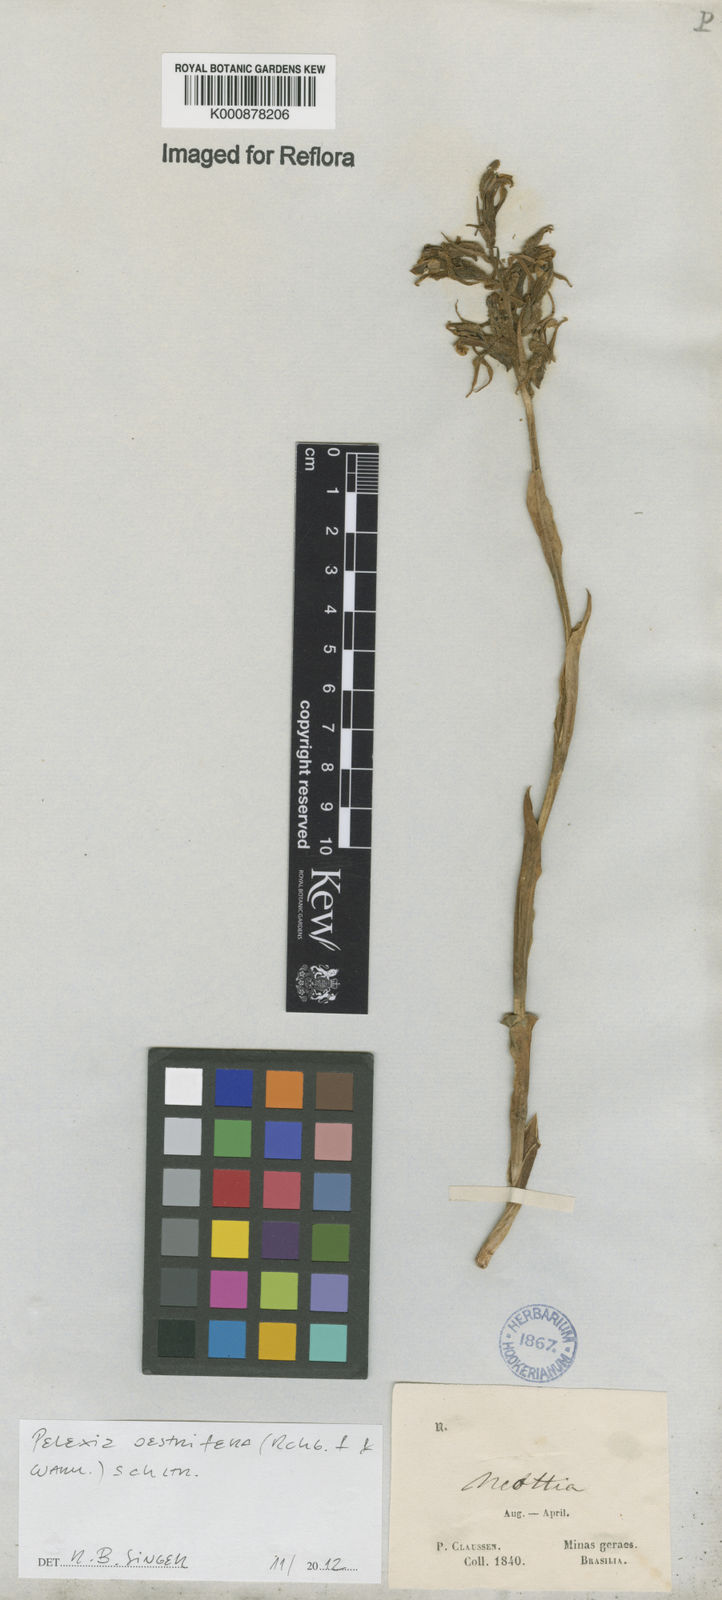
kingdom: Plantae
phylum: Tracheophyta
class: Liliopsida
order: Asparagales
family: Orchidaceae
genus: Pelexia
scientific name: Pelexia oestrifera
